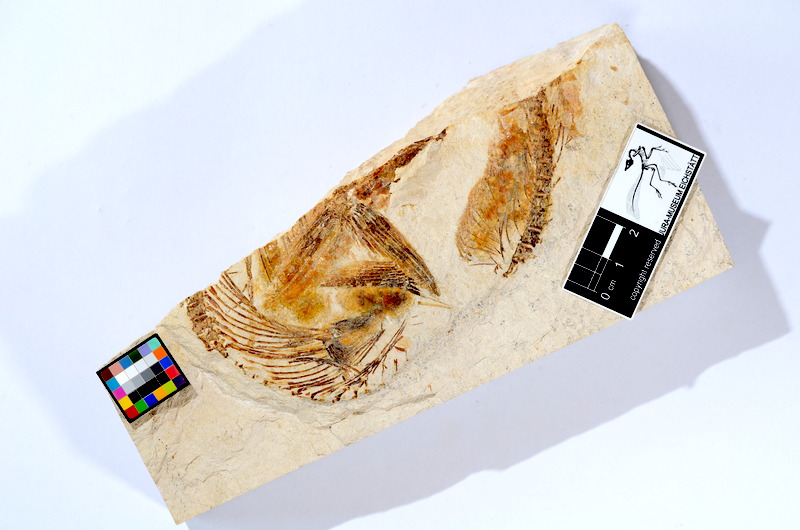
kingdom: Animalia
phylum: Chordata
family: Ascalaboidae
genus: Tharsis
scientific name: Tharsis dubius
